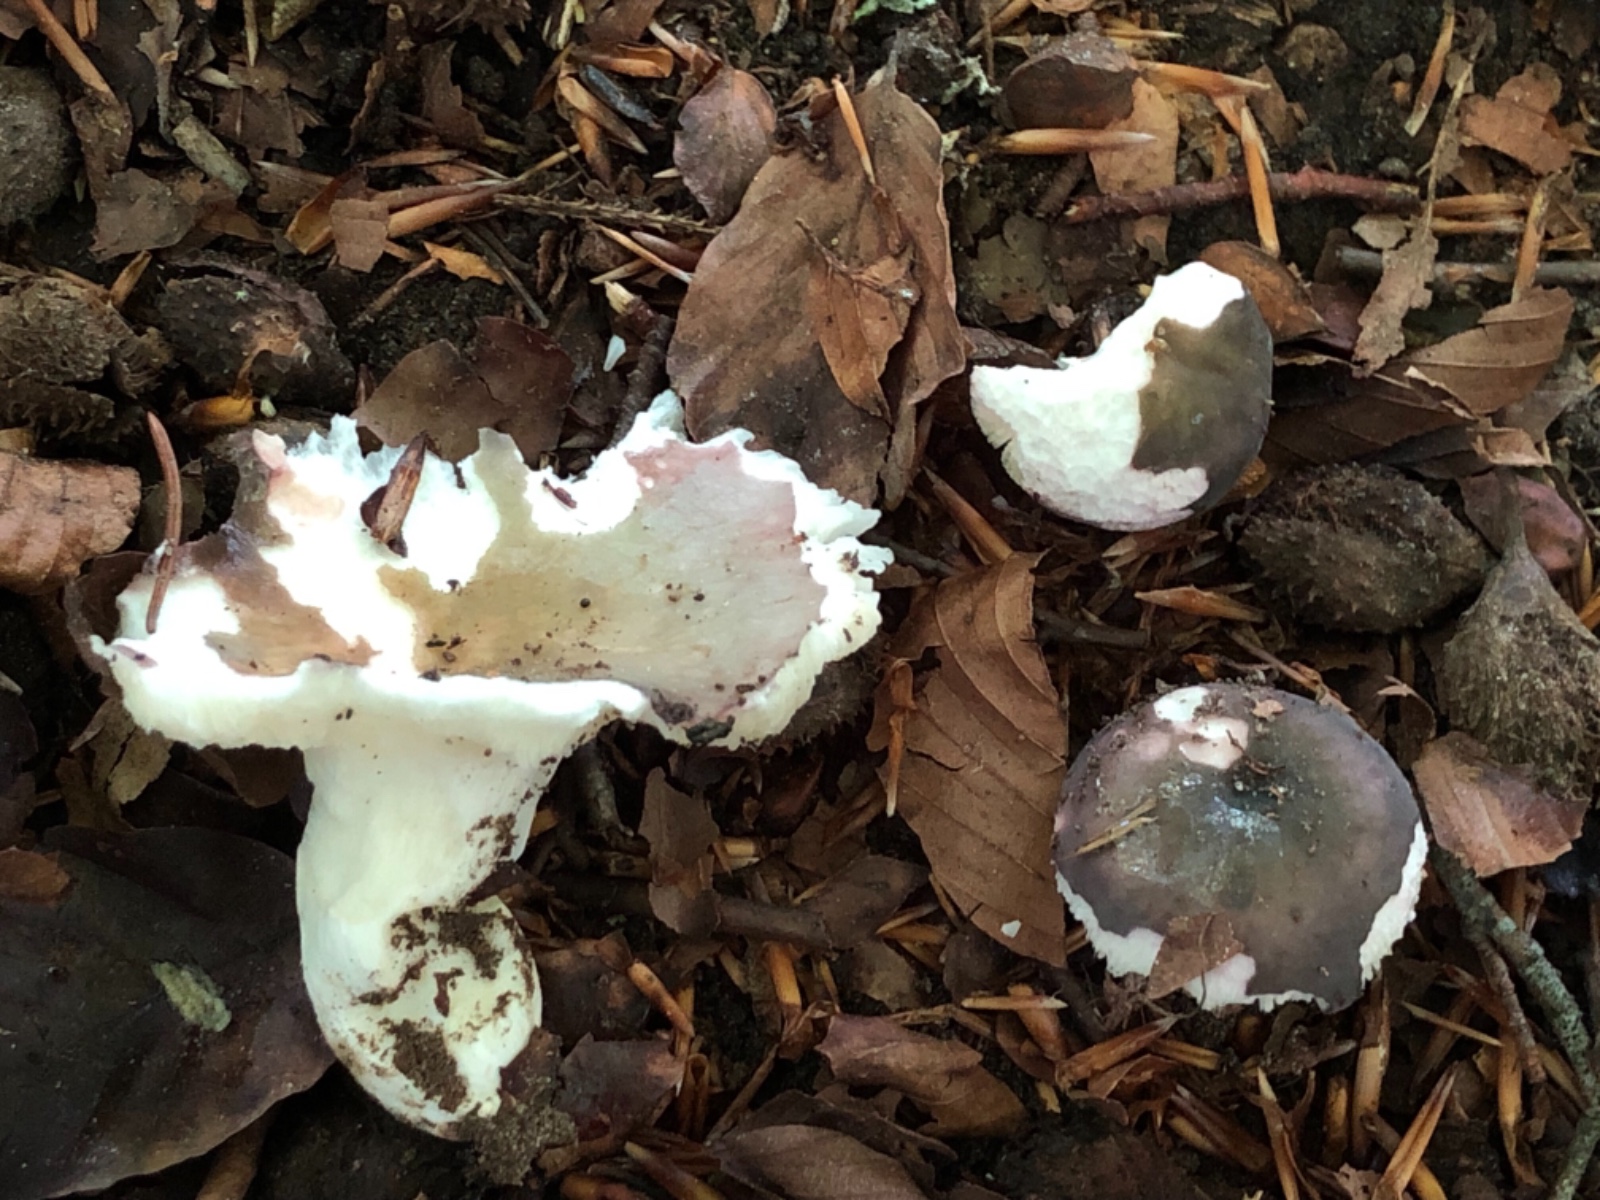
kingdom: Fungi
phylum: Basidiomycota
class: Agaricomycetes
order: Russulales
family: Russulaceae
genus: Russula
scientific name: Russula cyanoxantha
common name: broget skørhat
